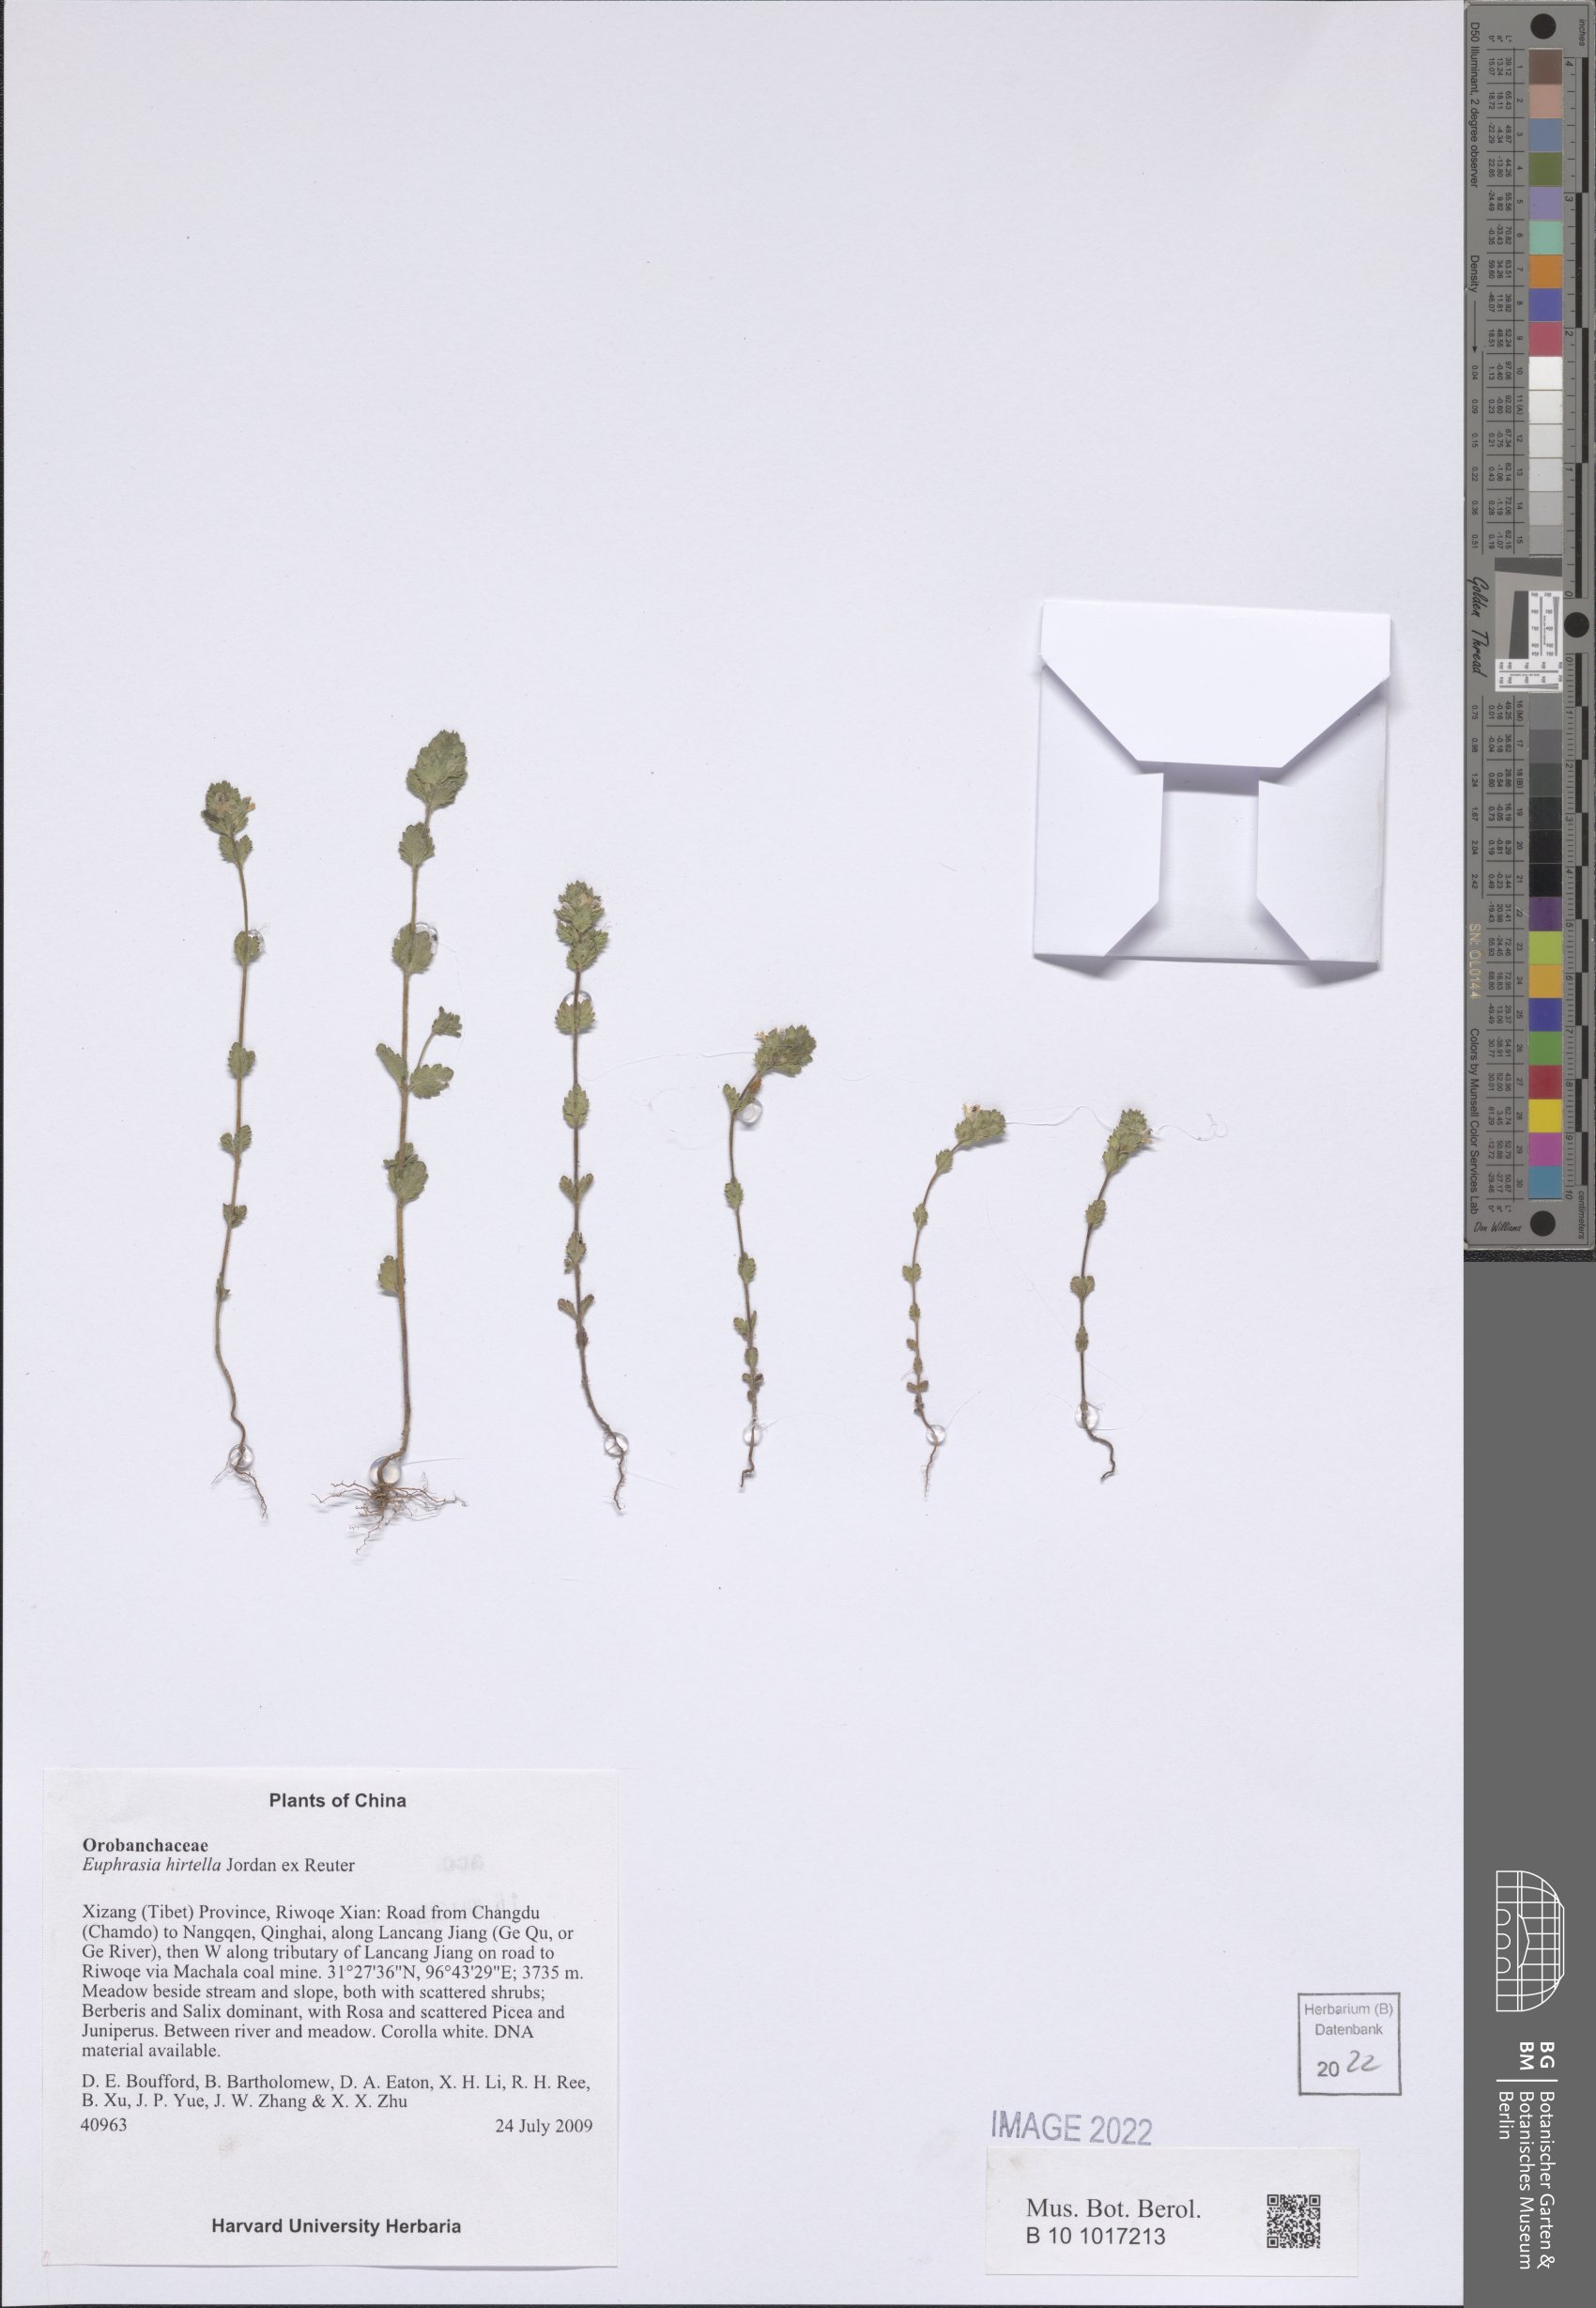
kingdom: Plantae
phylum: Tracheophyta
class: Magnoliopsida
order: Lamiales
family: Orobanchaceae
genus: Euphrasia
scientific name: Euphrasia hirtella
